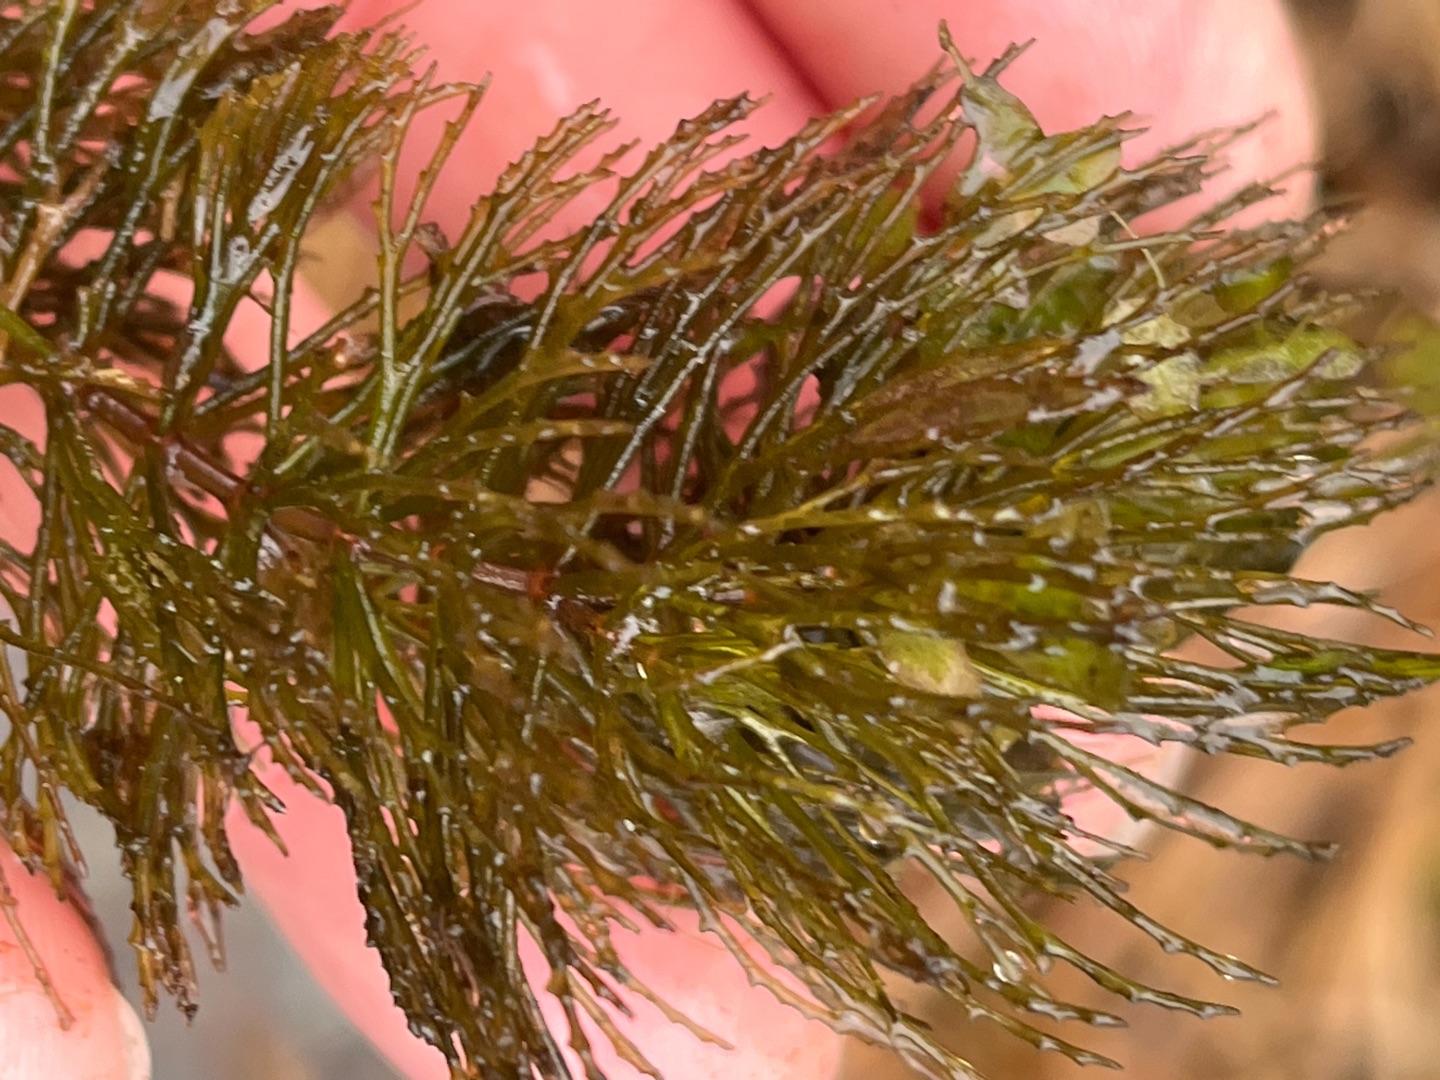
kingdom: Plantae
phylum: Tracheophyta
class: Magnoliopsida
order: Ceratophyllales
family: Ceratophyllaceae
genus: Ceratophyllum
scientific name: Ceratophyllum demersum
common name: Tornfrøet hornblad
